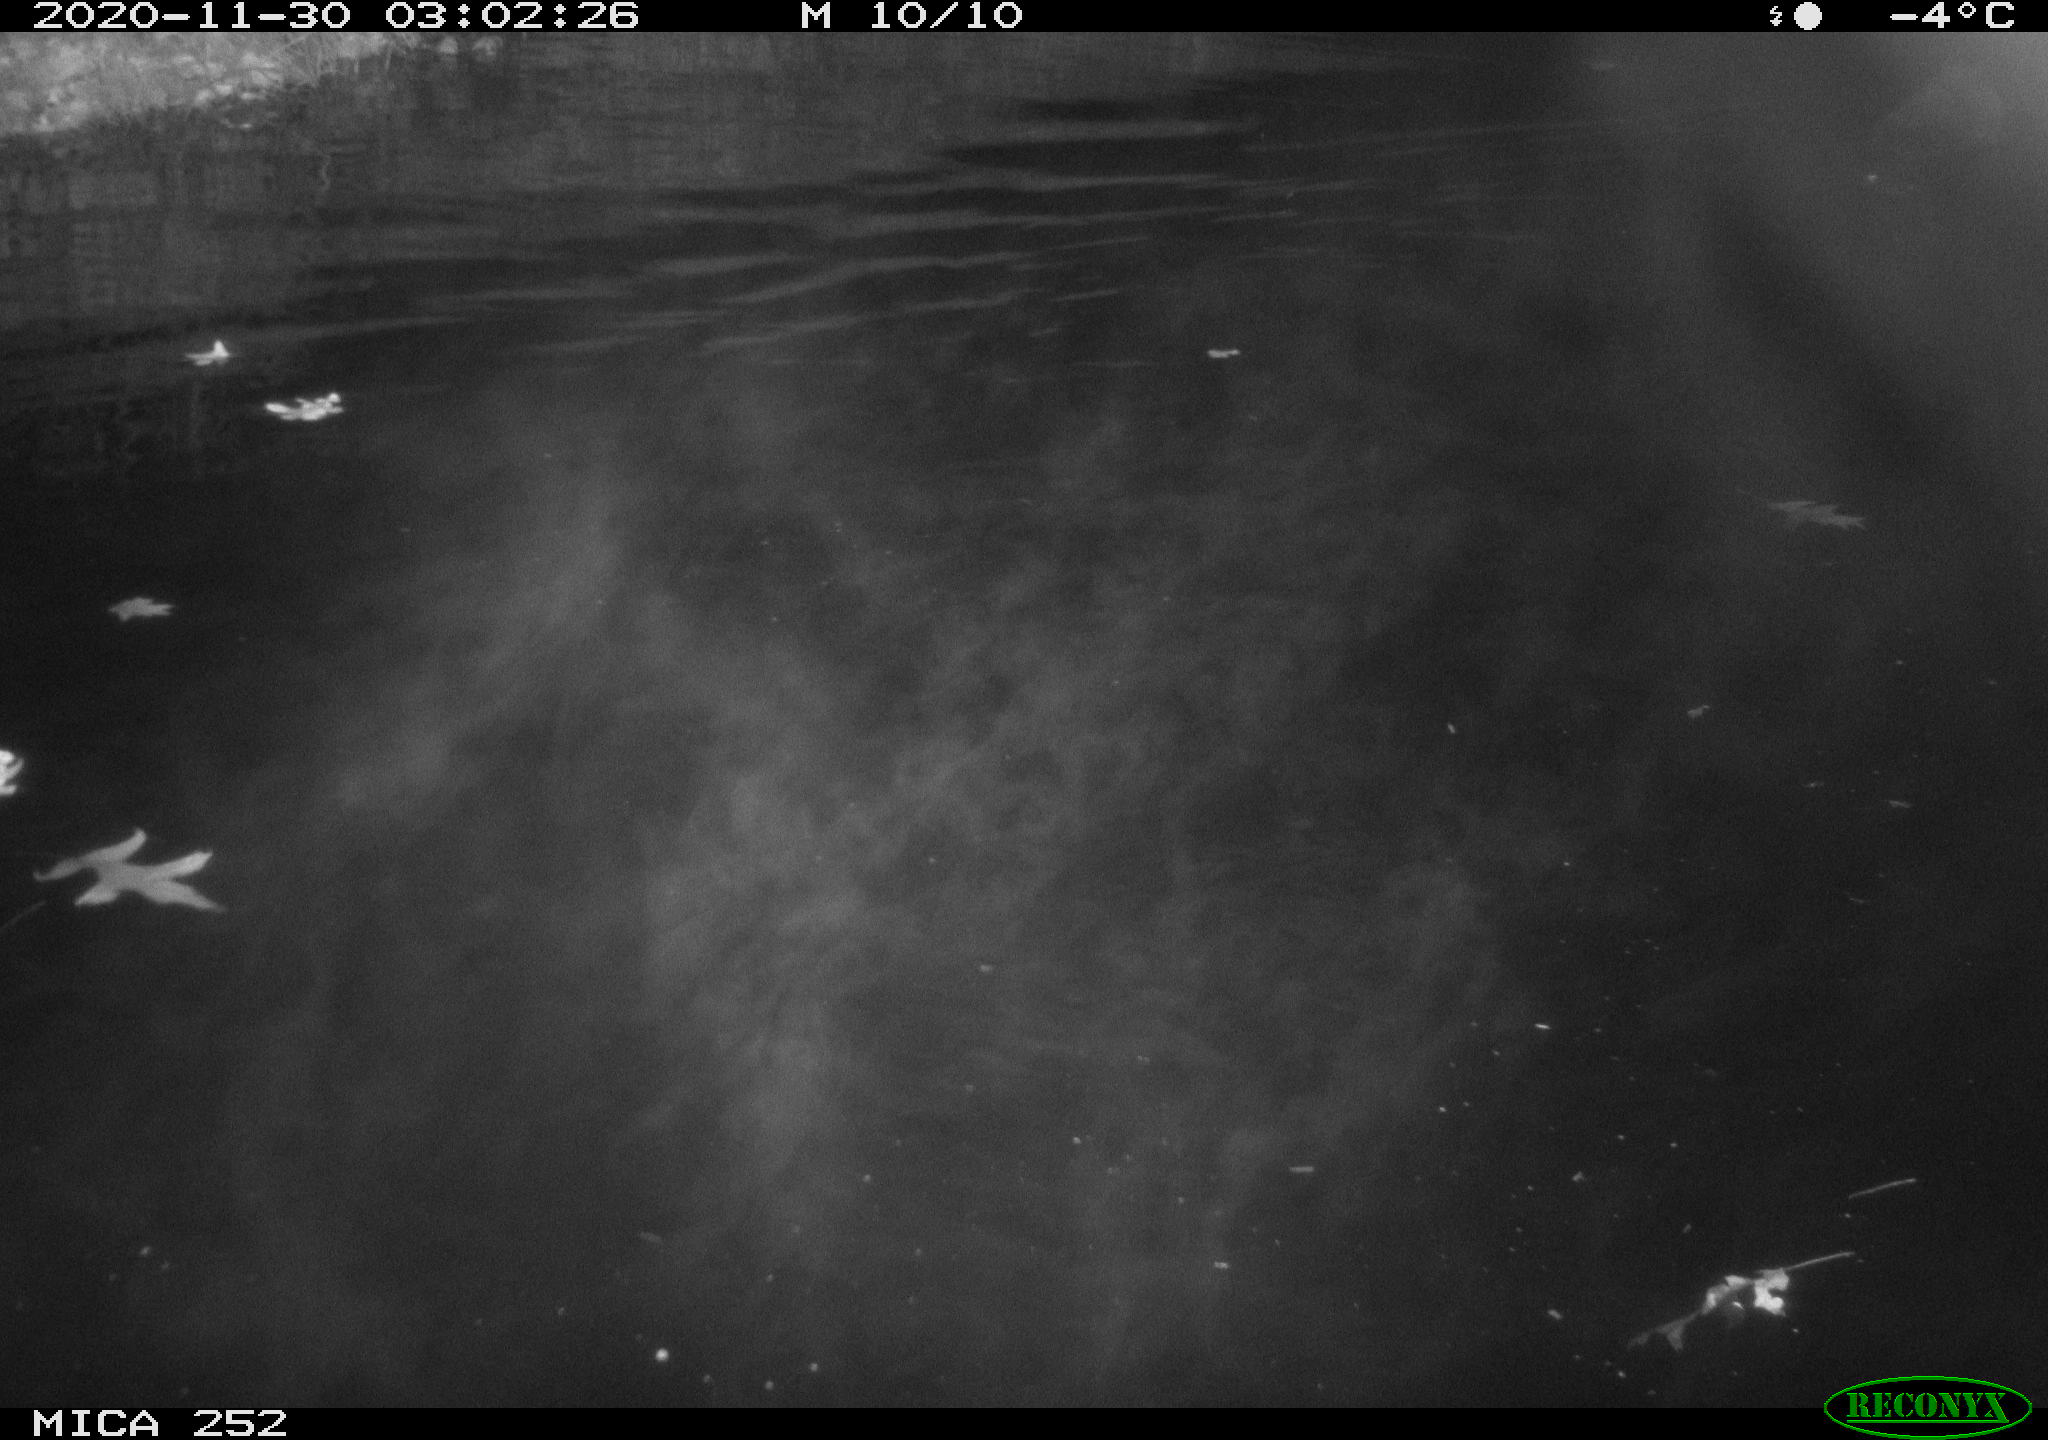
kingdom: Animalia
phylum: Chordata
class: Mammalia
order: Rodentia
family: Castoridae
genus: Castor
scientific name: Castor fiber
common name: Eurasian beaver
